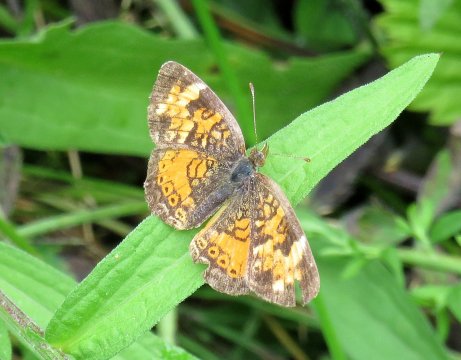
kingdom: Animalia
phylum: Arthropoda
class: Insecta
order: Lepidoptera
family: Nymphalidae
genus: Phyciodes
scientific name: Phyciodes tharos
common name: Northern Crescent
